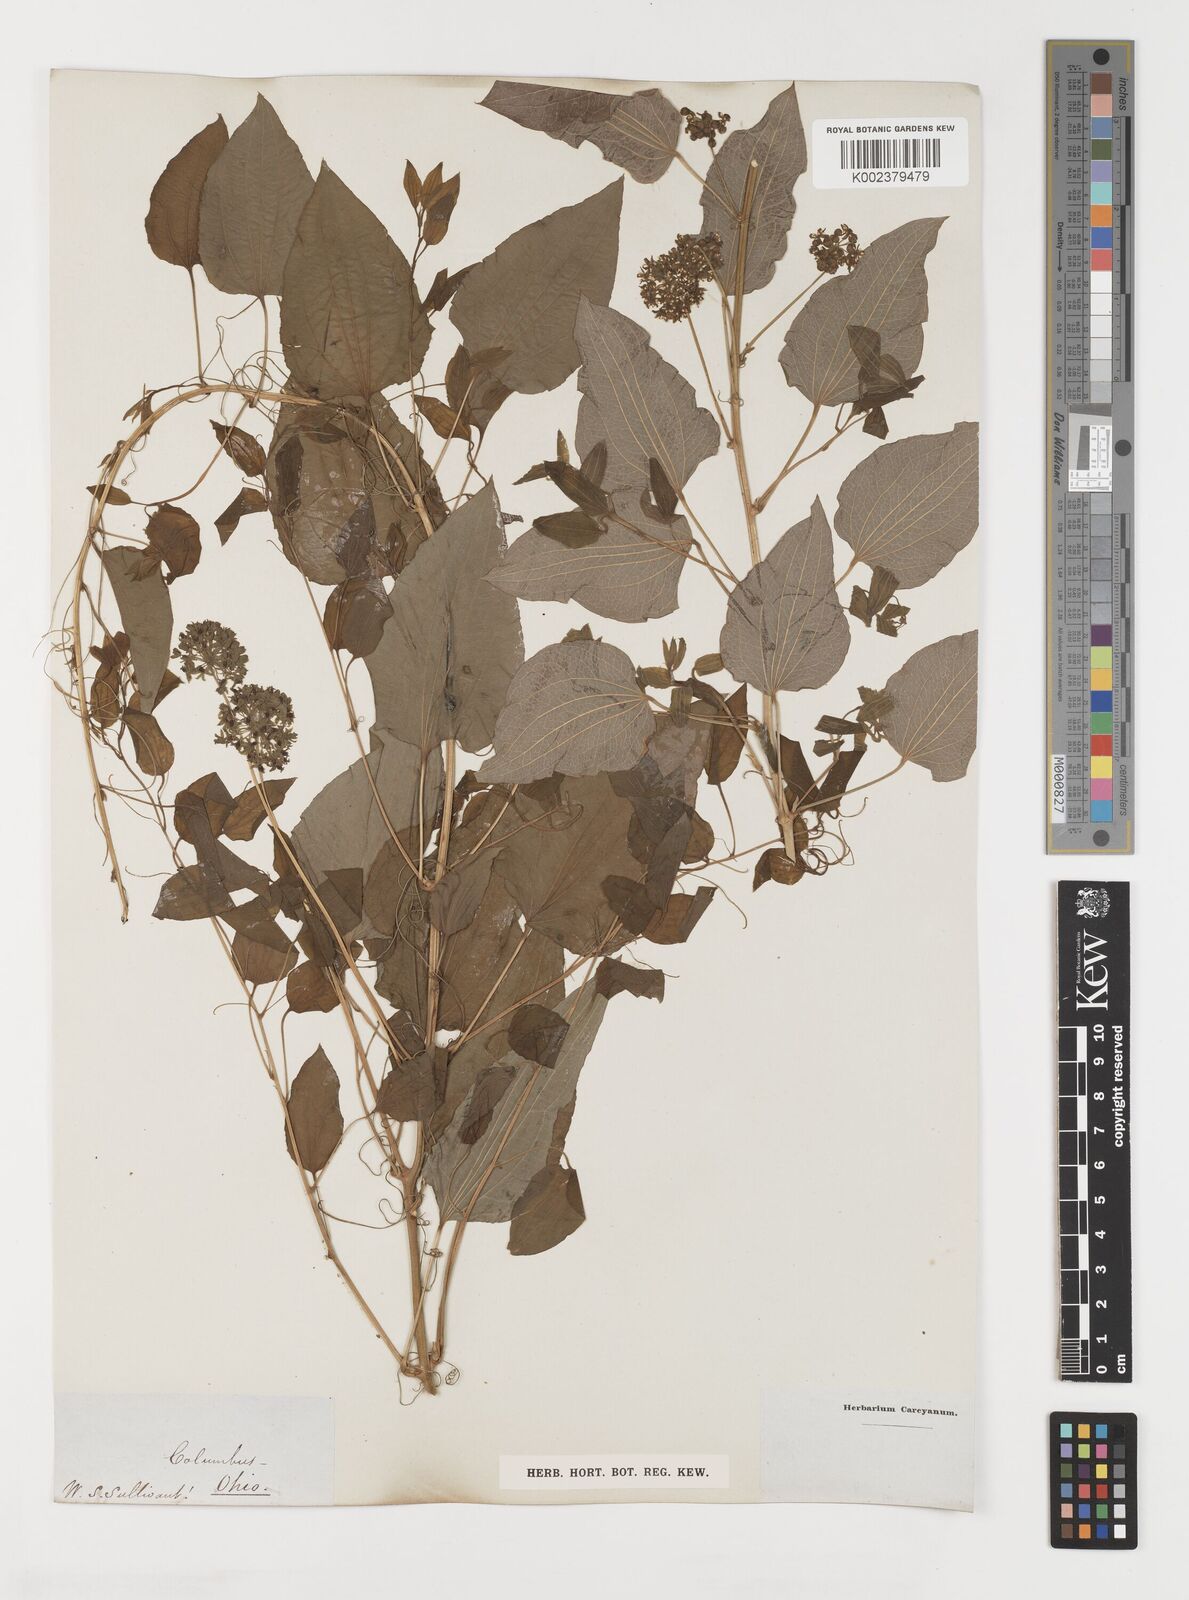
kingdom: Plantae
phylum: Tracheophyta
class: Liliopsida
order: Liliales
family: Smilacaceae
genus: Smilax
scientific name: Smilax
